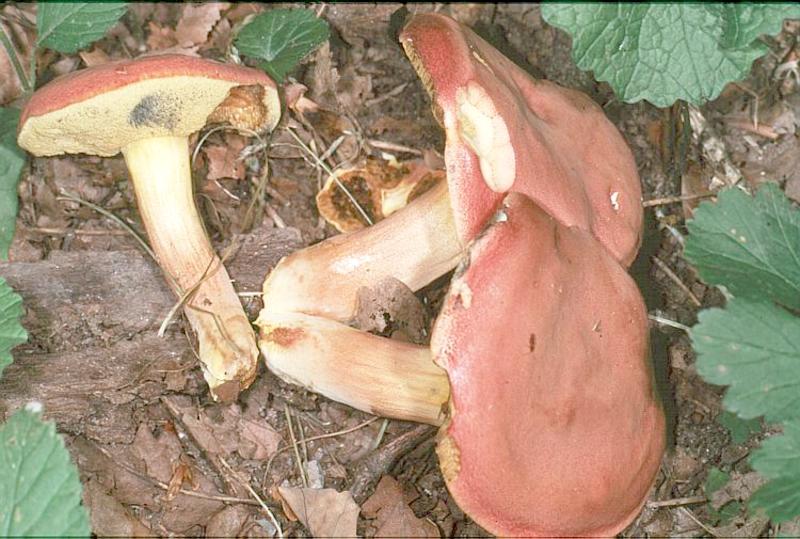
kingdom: Fungi
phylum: Basidiomycota
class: Agaricomycetes
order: Boletales
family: Boletaceae
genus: Hortiboletus
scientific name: Hortiboletus rubellus
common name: Ruby bolete
